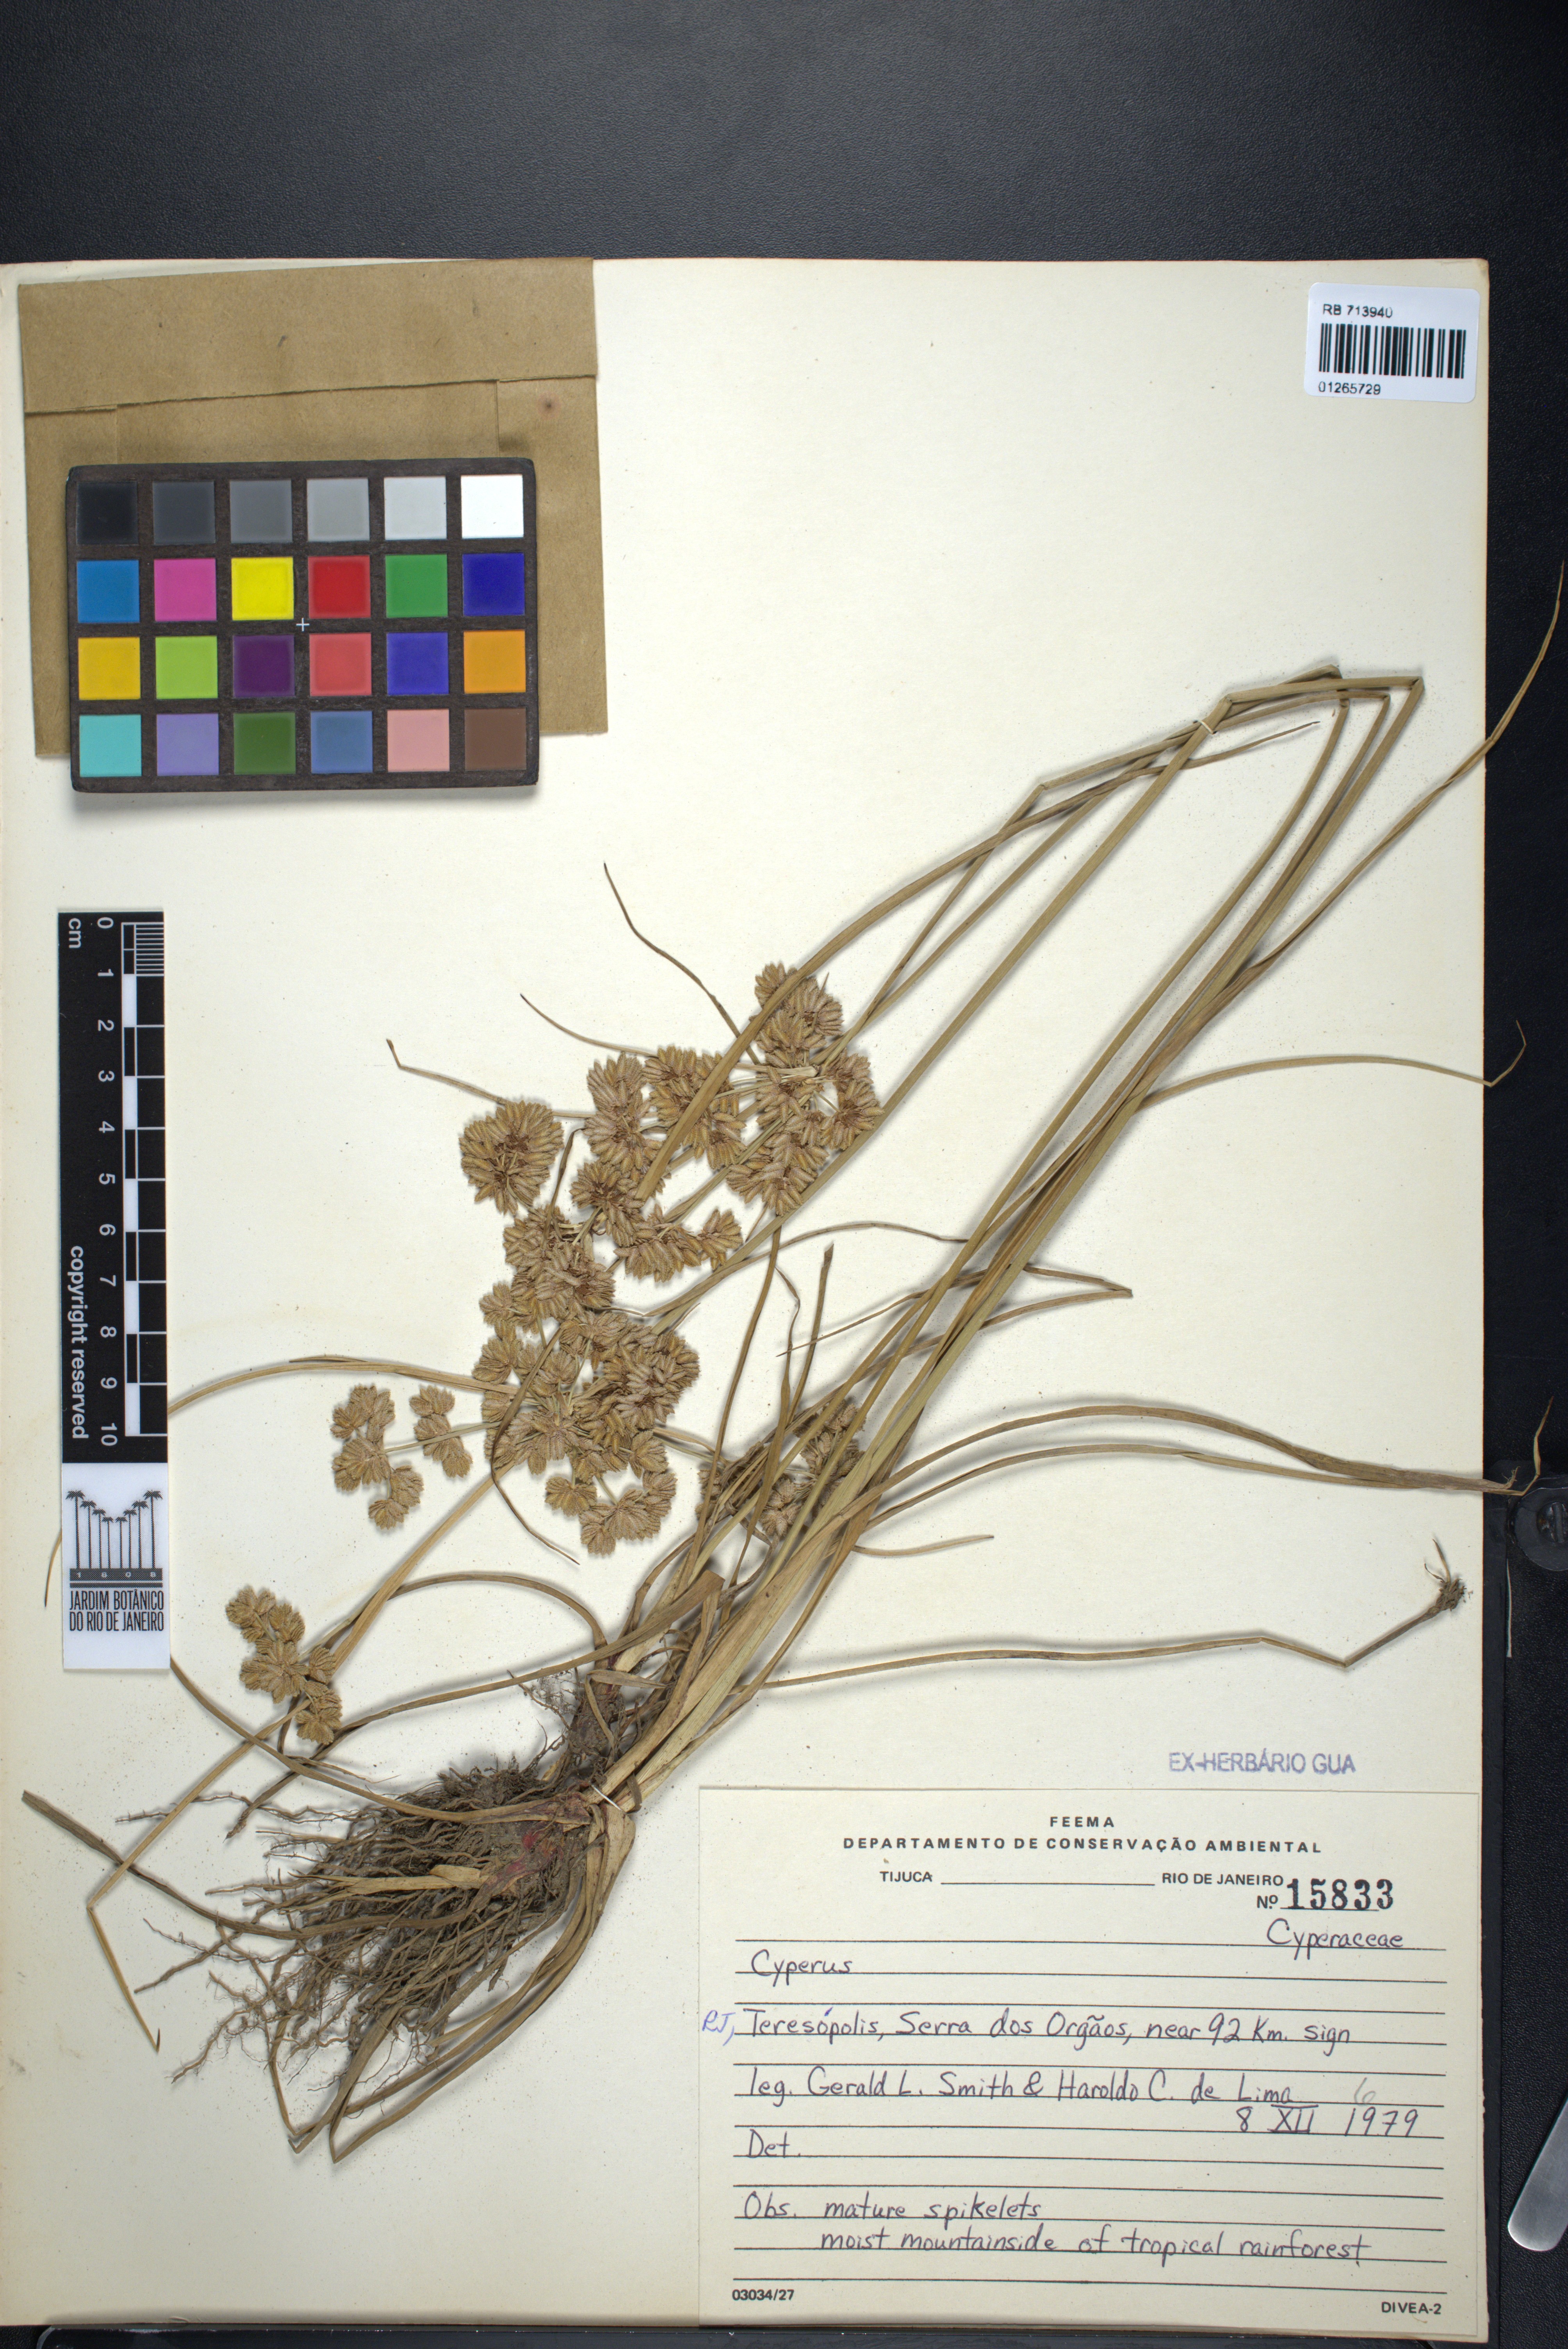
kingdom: Plantae
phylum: Tracheophyta
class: Liliopsida
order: Poales
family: Cyperaceae
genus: Cyperus
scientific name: Cyperus
